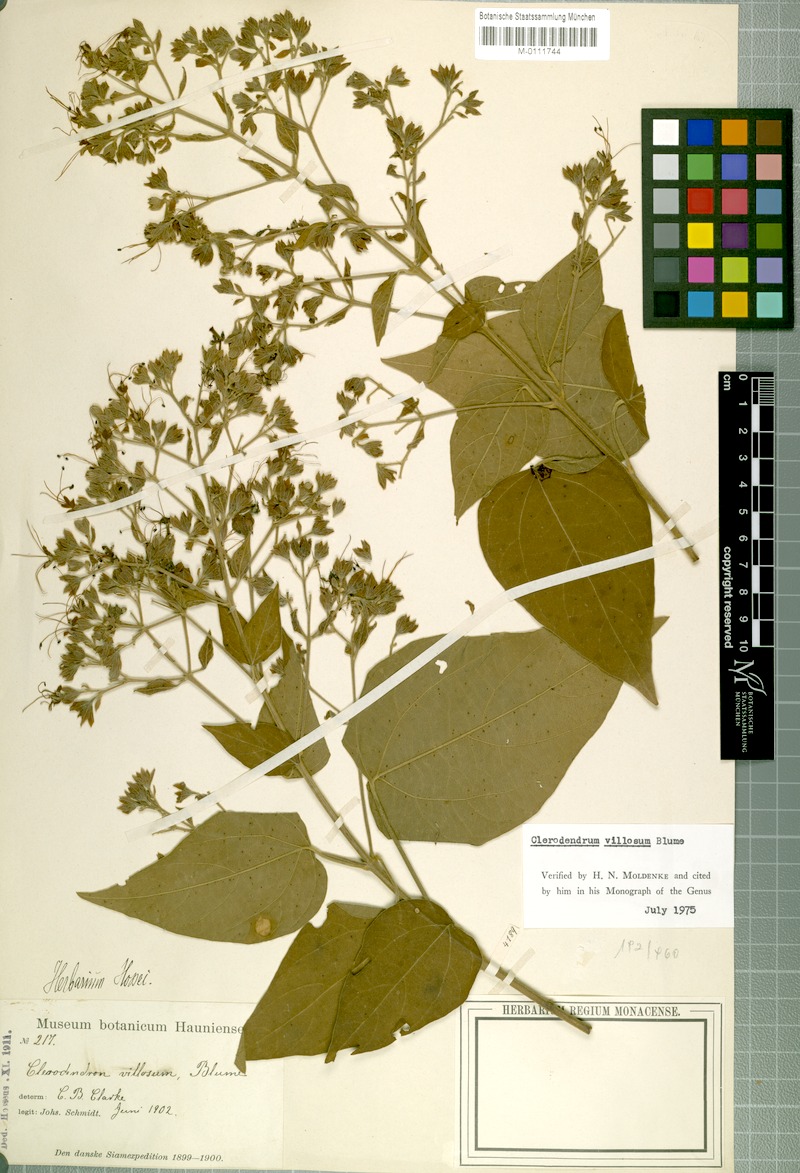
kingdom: Plantae
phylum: Tracheophyta
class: Magnoliopsida
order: Lamiales
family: Lamiaceae
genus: Clerodendrum
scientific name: Clerodendrum villosum
